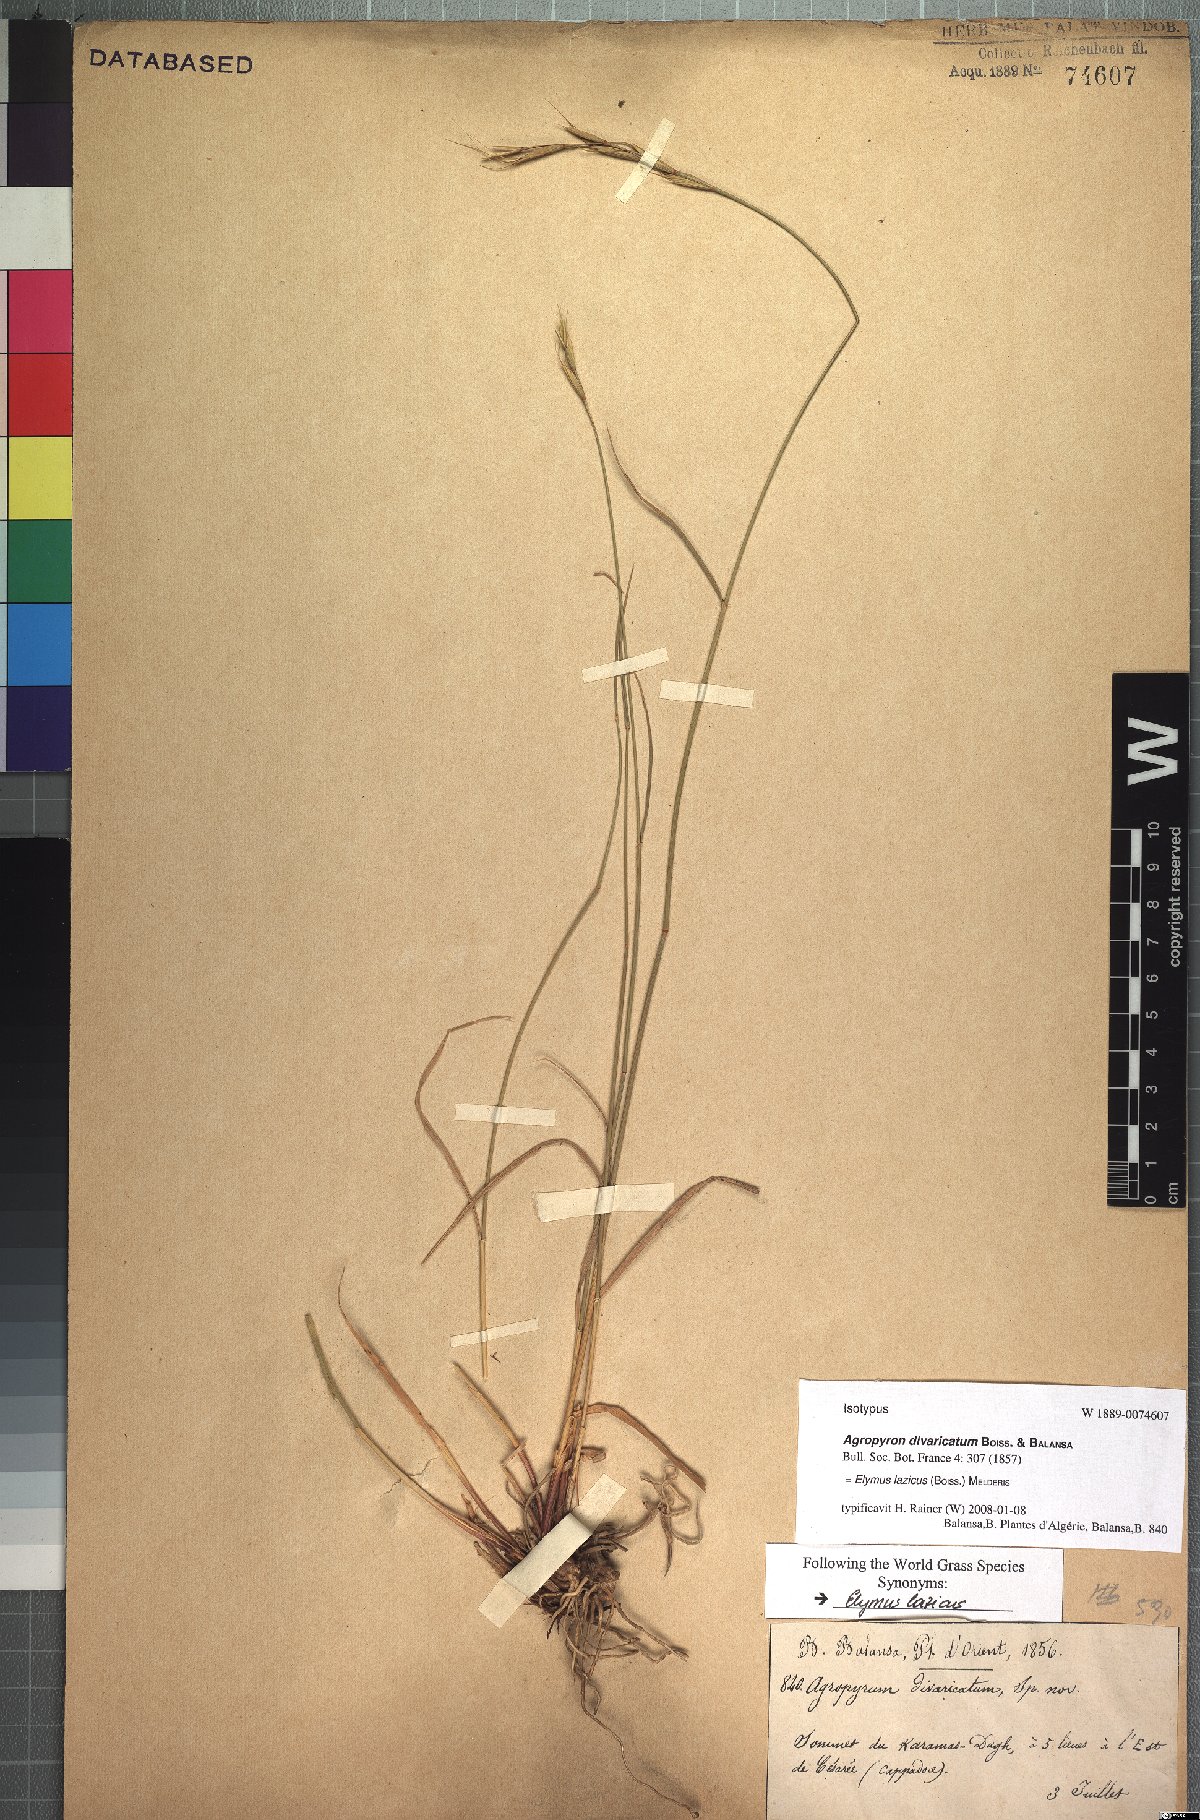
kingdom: Plantae
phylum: Tracheophyta
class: Liliopsida
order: Poales
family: Poaceae
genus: Elymus
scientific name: Elymus lazicus
